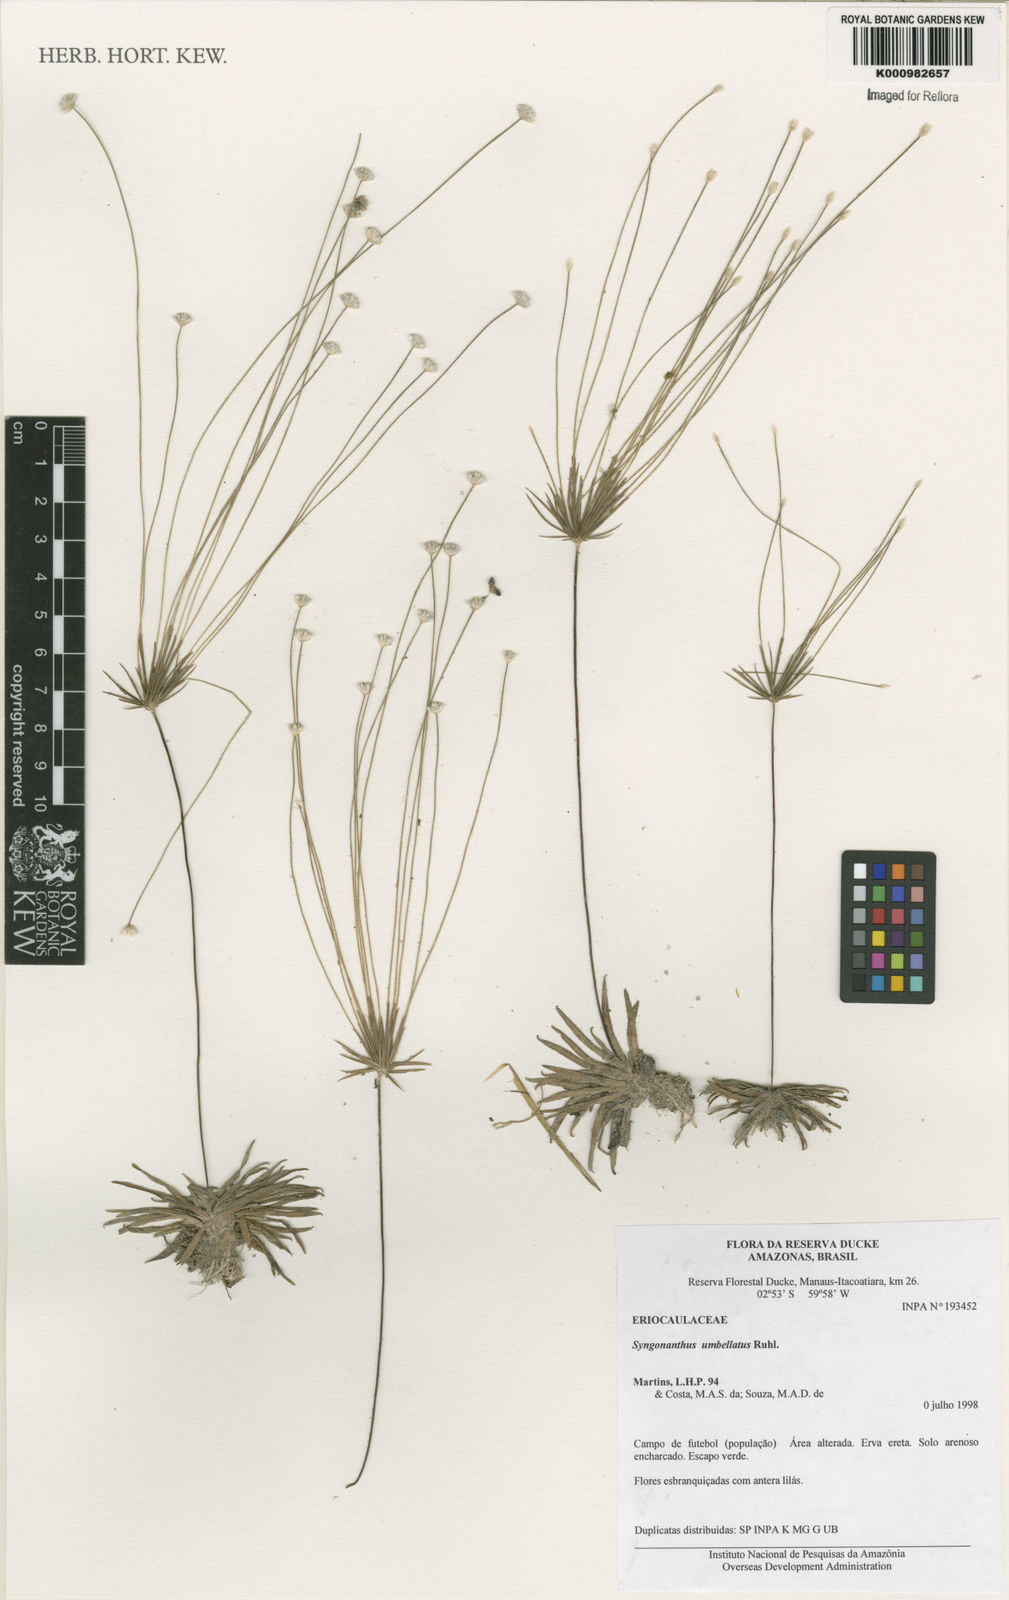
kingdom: Plantae
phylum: Tracheophyta
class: Liliopsida
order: Poales
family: Eriocaulaceae
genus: Syngonanthus
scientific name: Syngonanthus umbellatus
